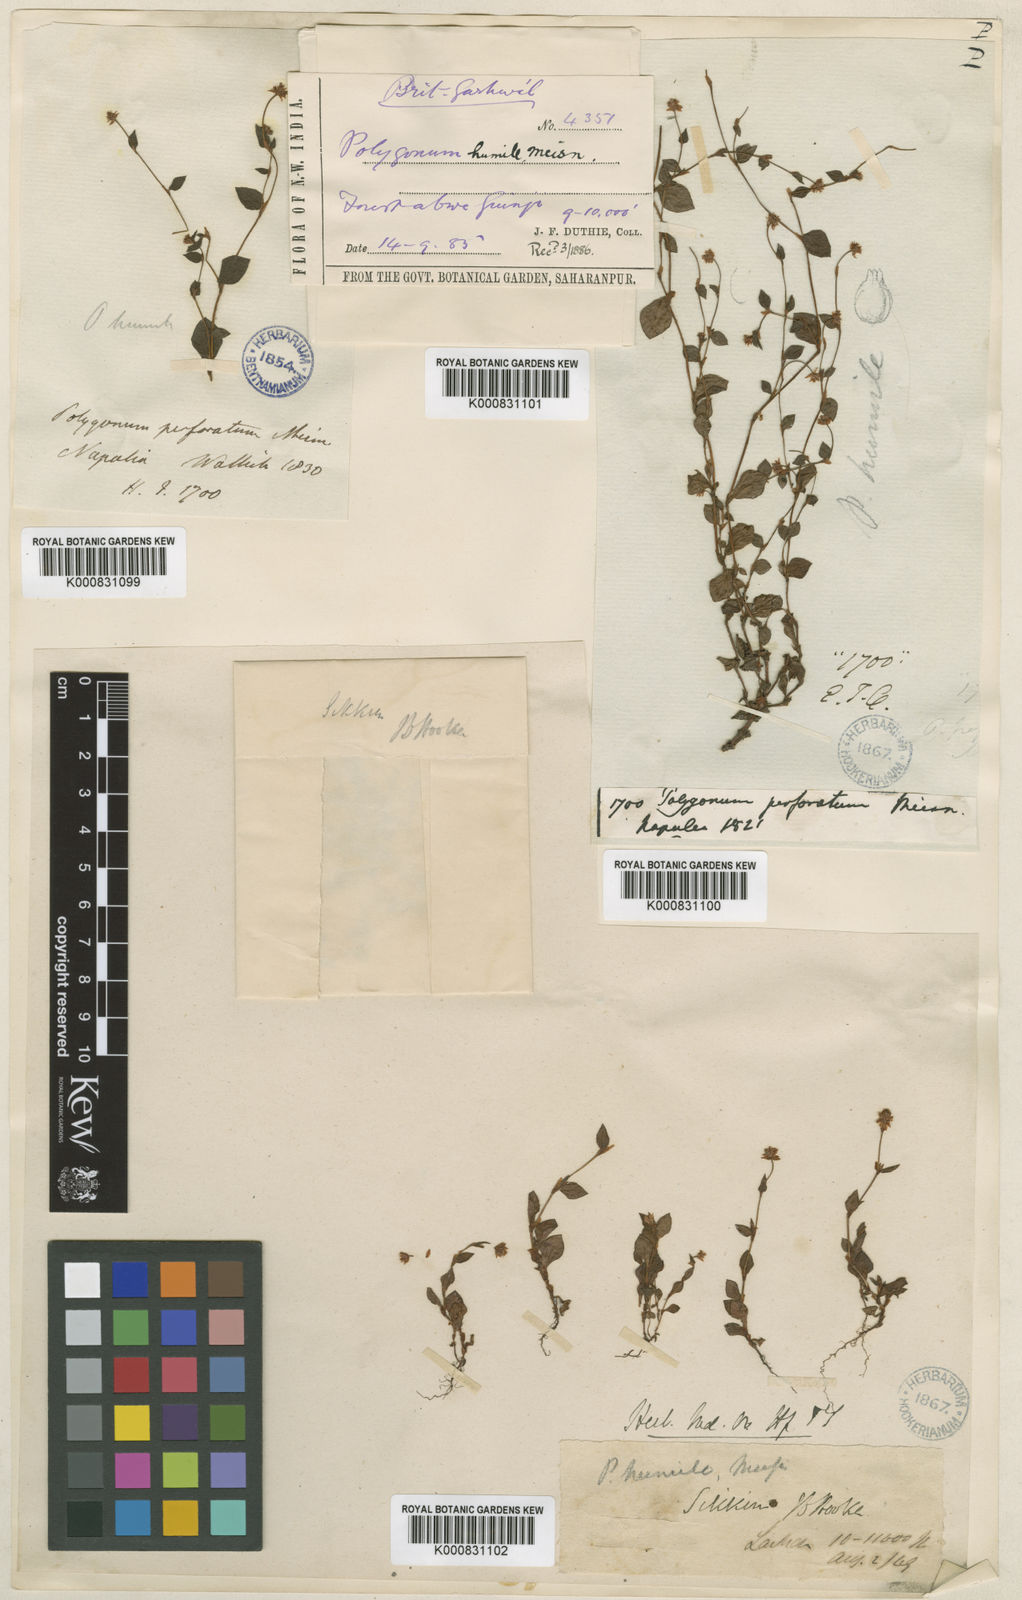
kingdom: Plantae
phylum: Tracheophyta
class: Magnoliopsida
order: Caryophyllales
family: Polygonaceae
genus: Persicaria
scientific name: Persicaria humilis
